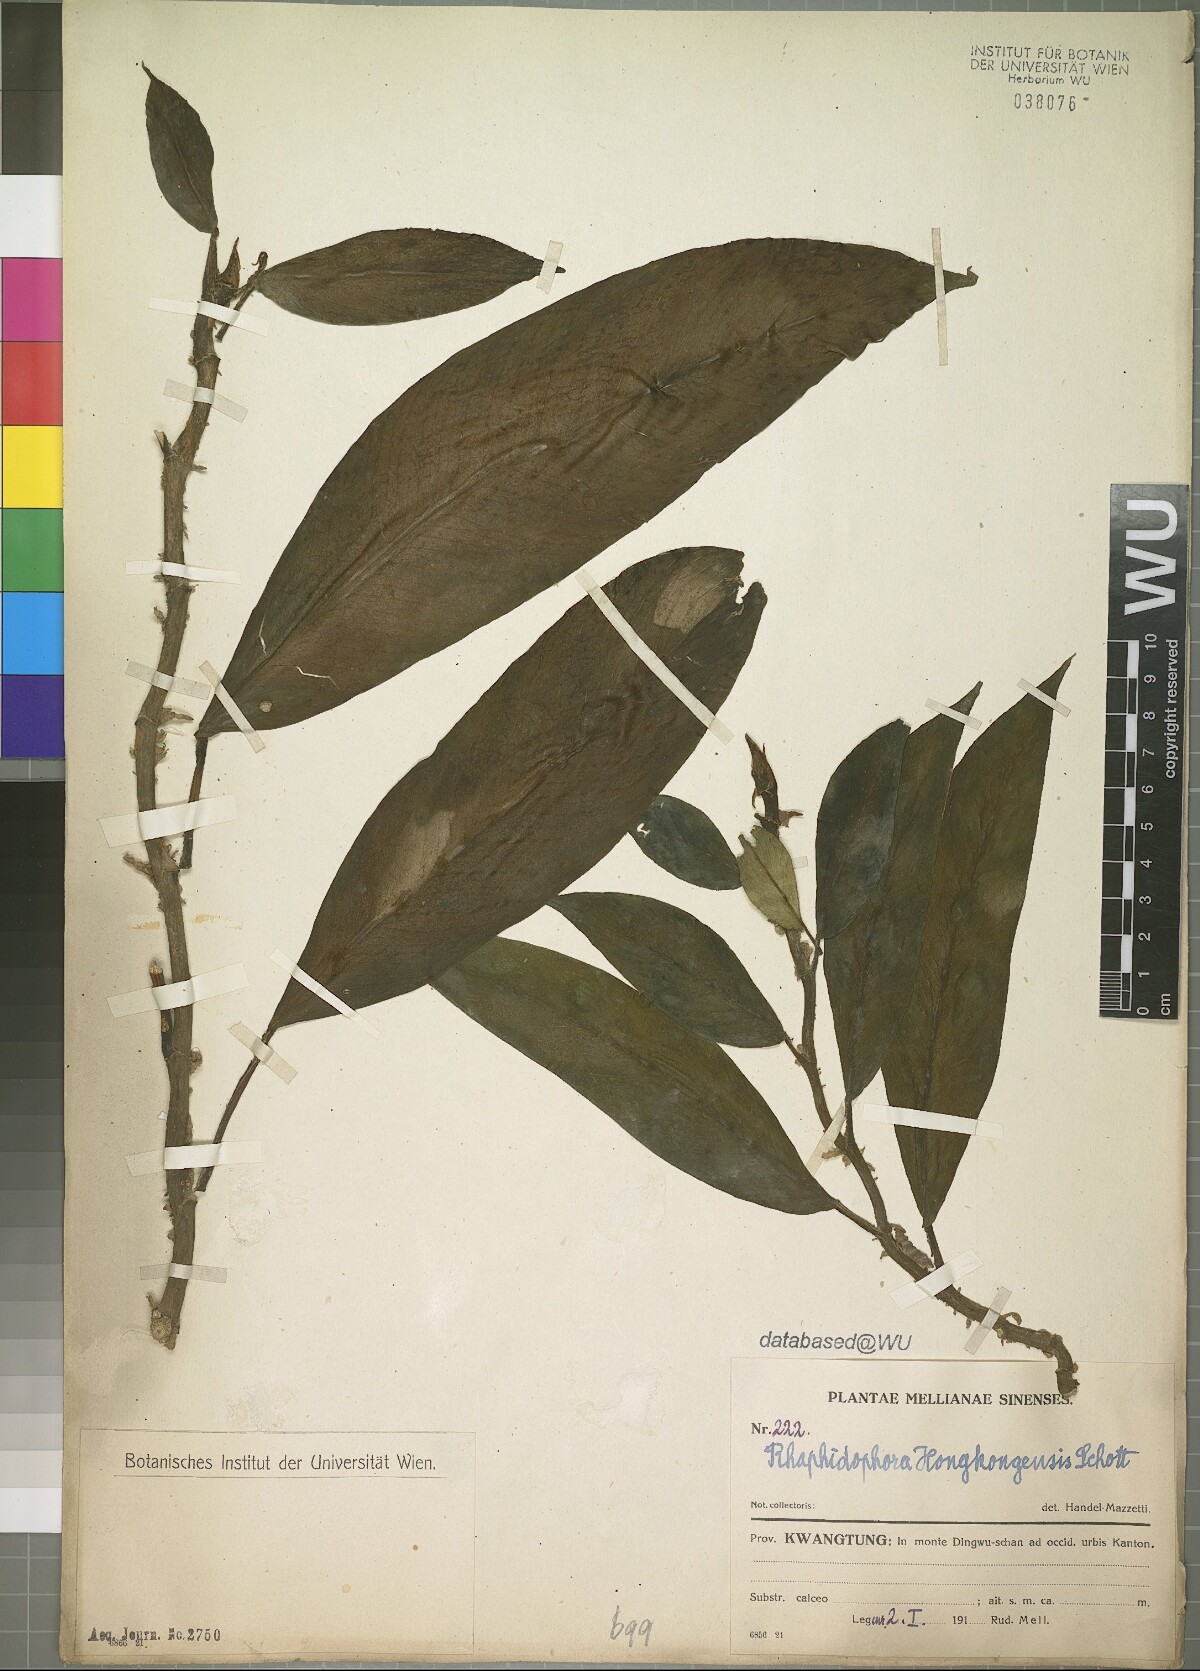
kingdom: Plantae
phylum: Tracheophyta
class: Liliopsida
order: Alismatales
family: Araceae
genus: Rhaphidophora
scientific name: Rhaphidophora hongkongensis
